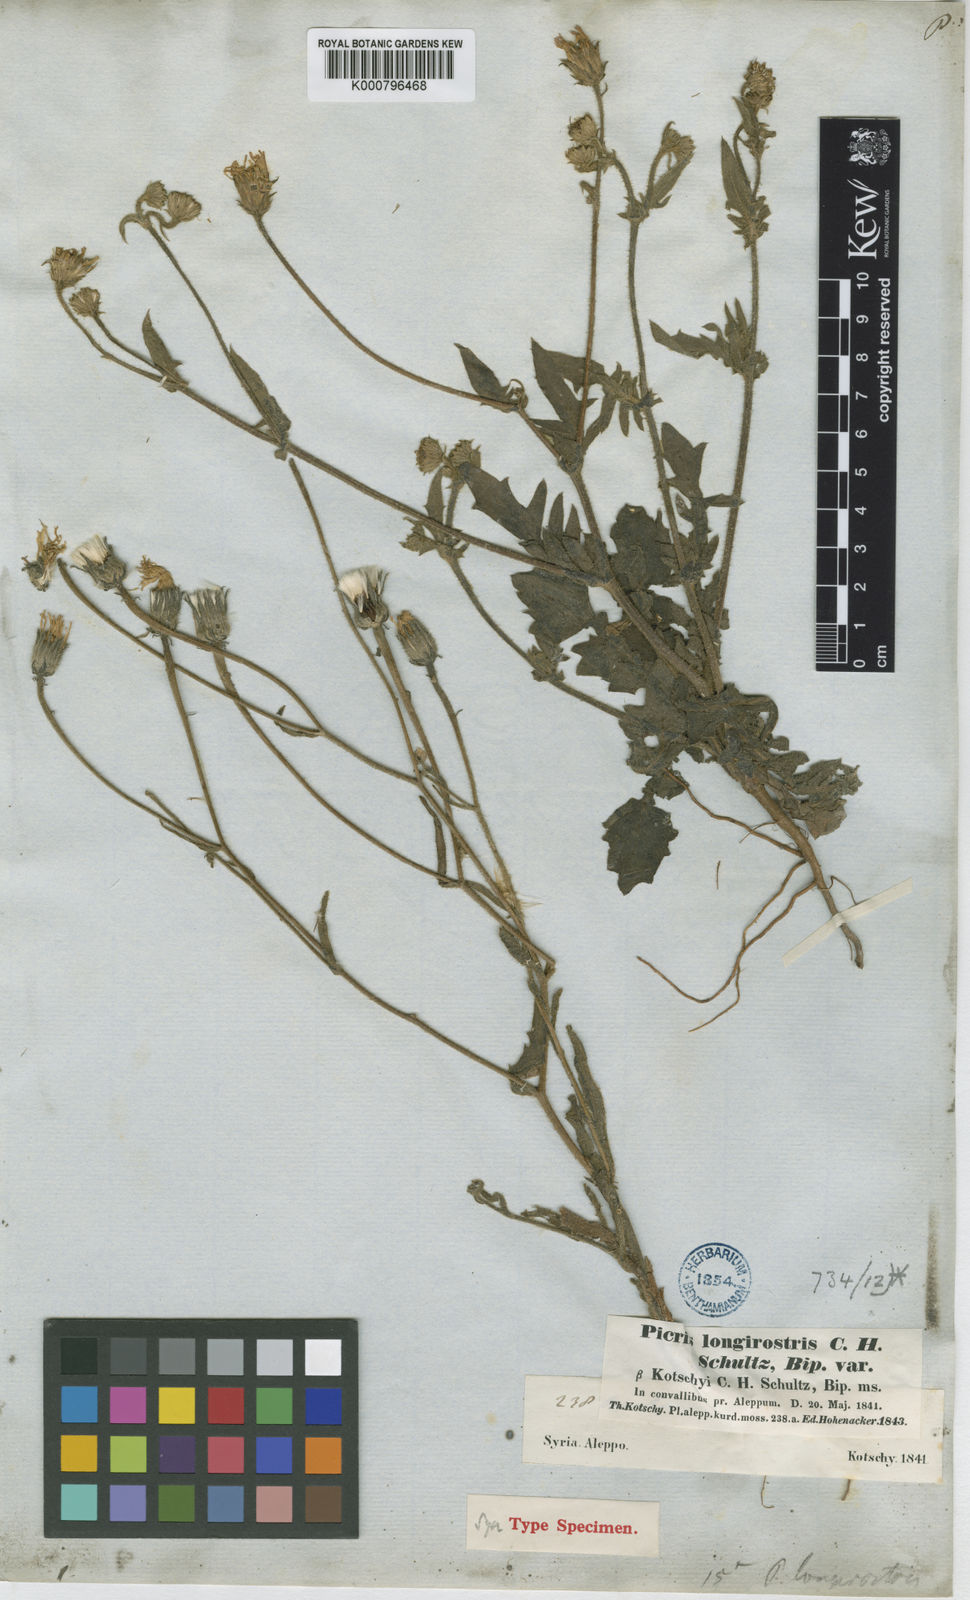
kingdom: Plantae
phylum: Tracheophyta
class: Magnoliopsida
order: Asterales
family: Asteraceae
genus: Picris
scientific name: Picris kotschyi
